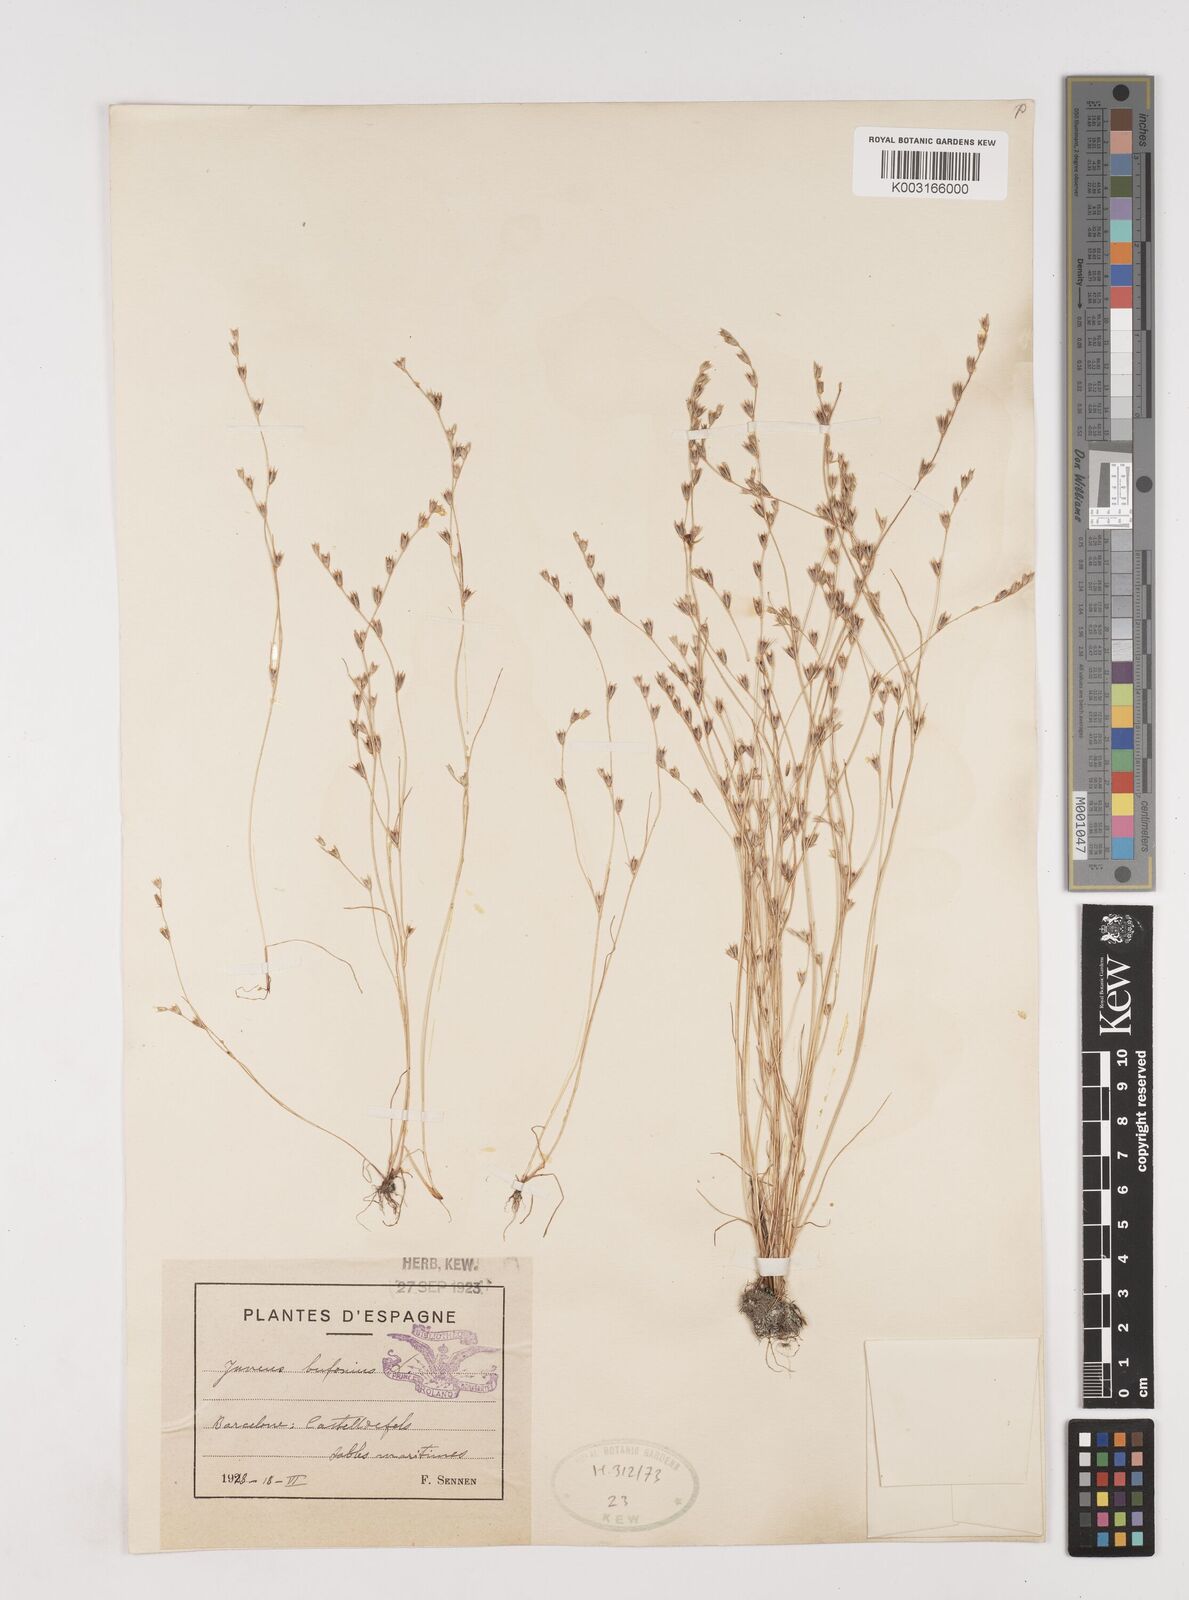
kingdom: Plantae
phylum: Tracheophyta
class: Liliopsida
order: Poales
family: Juncaceae
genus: Juncus
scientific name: Juncus bufonius
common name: Toad rush
